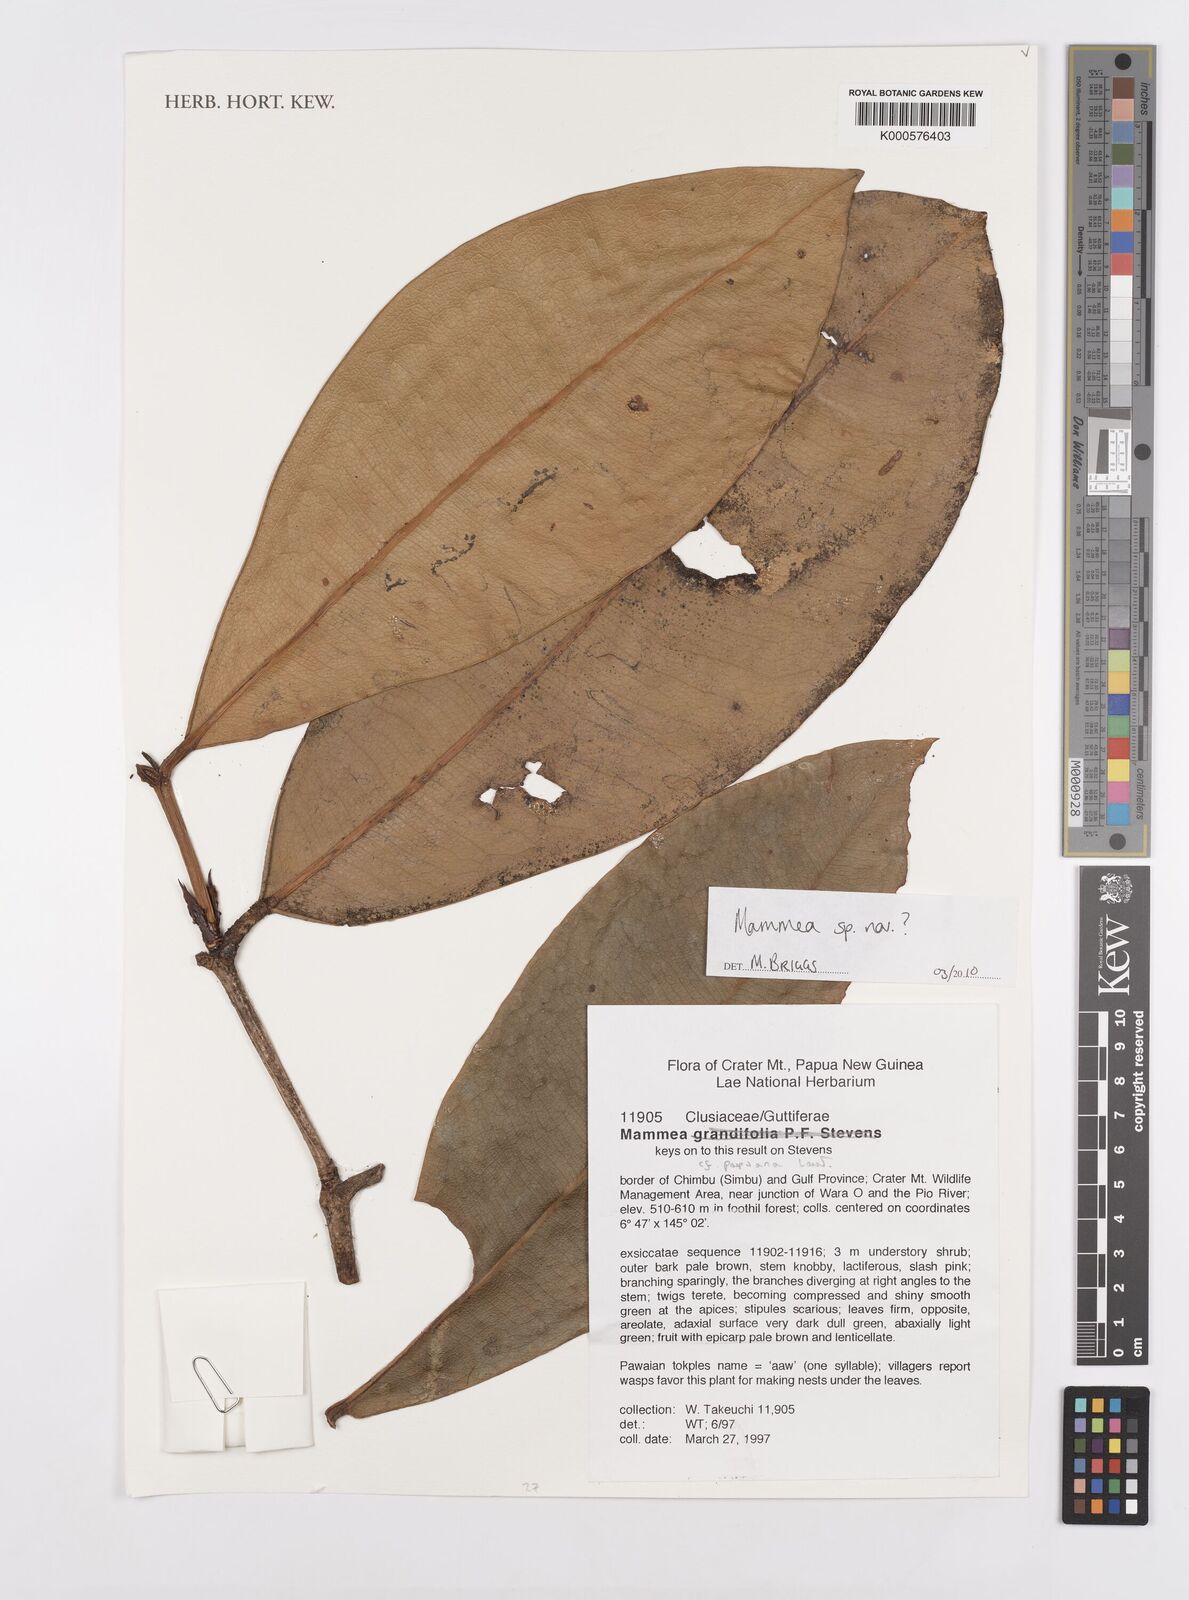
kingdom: Plantae
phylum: Tracheophyta
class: Magnoliopsida
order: Malpighiales
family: Calophyllaceae
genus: Mammea
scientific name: Mammea
